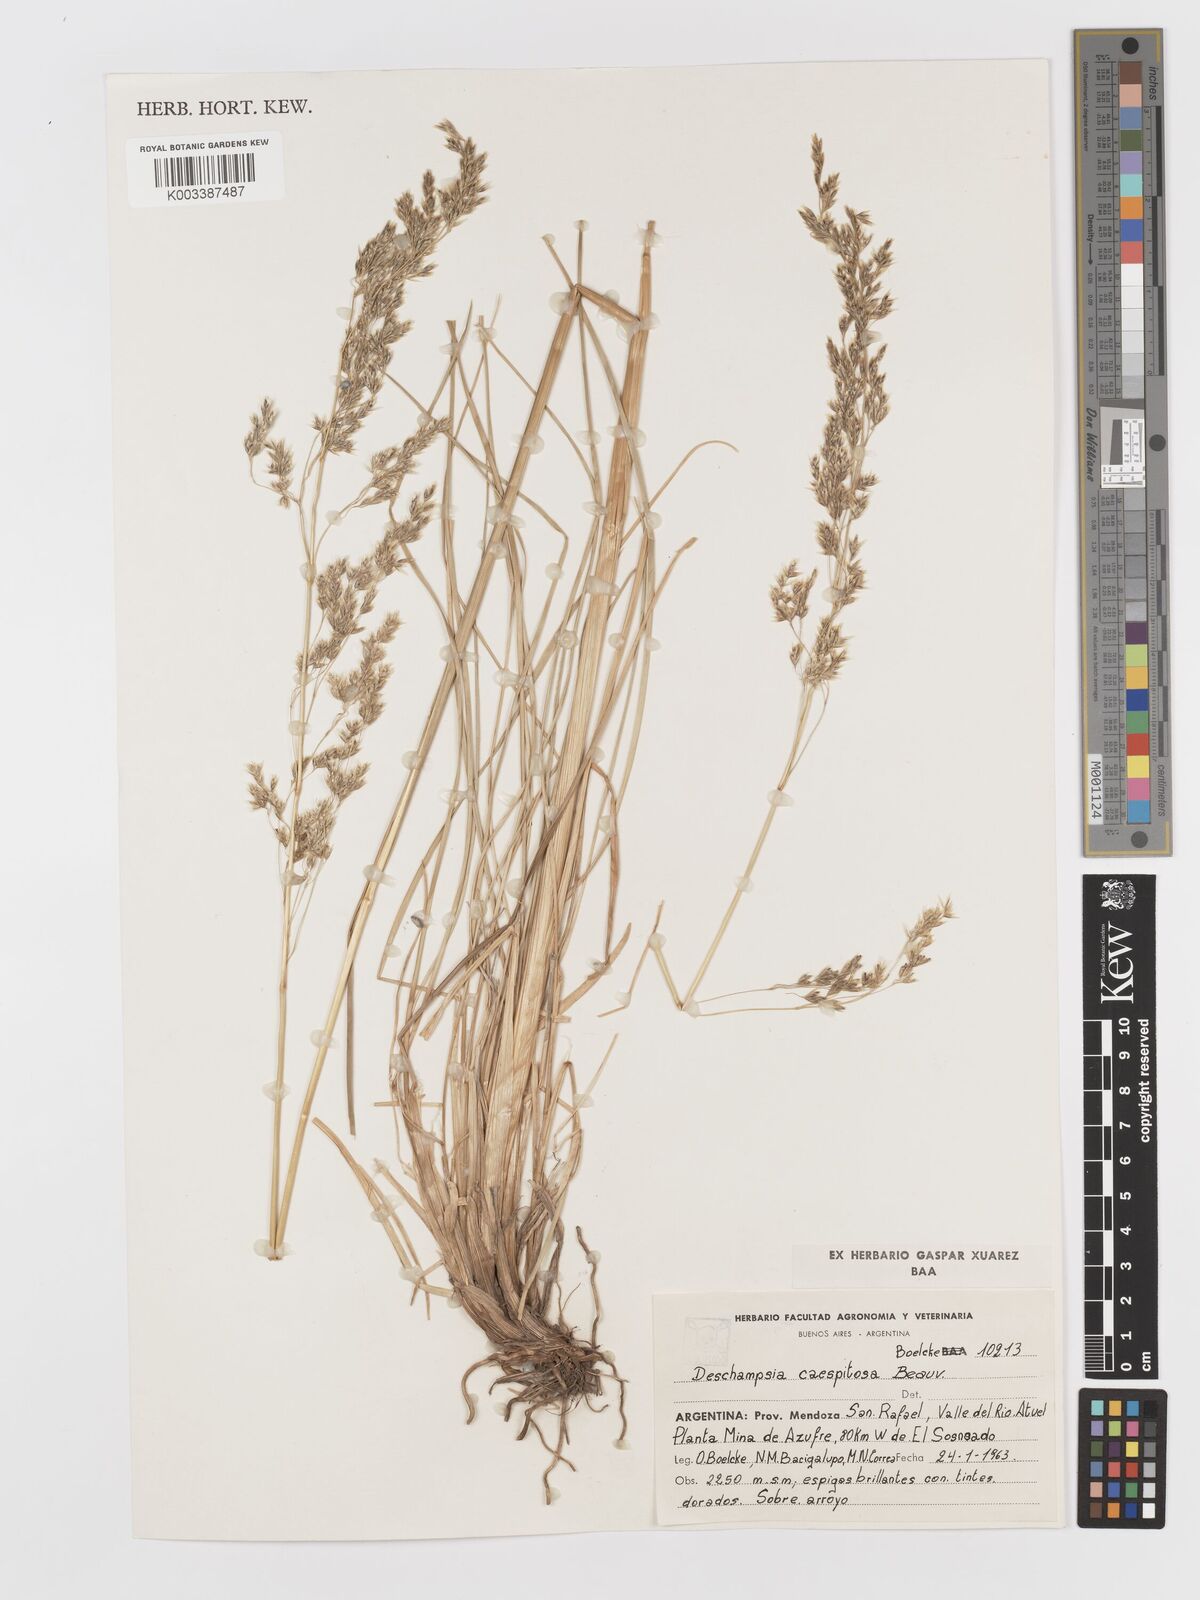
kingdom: Plantae
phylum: Tracheophyta
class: Liliopsida
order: Poales
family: Poaceae
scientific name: Poaceae
